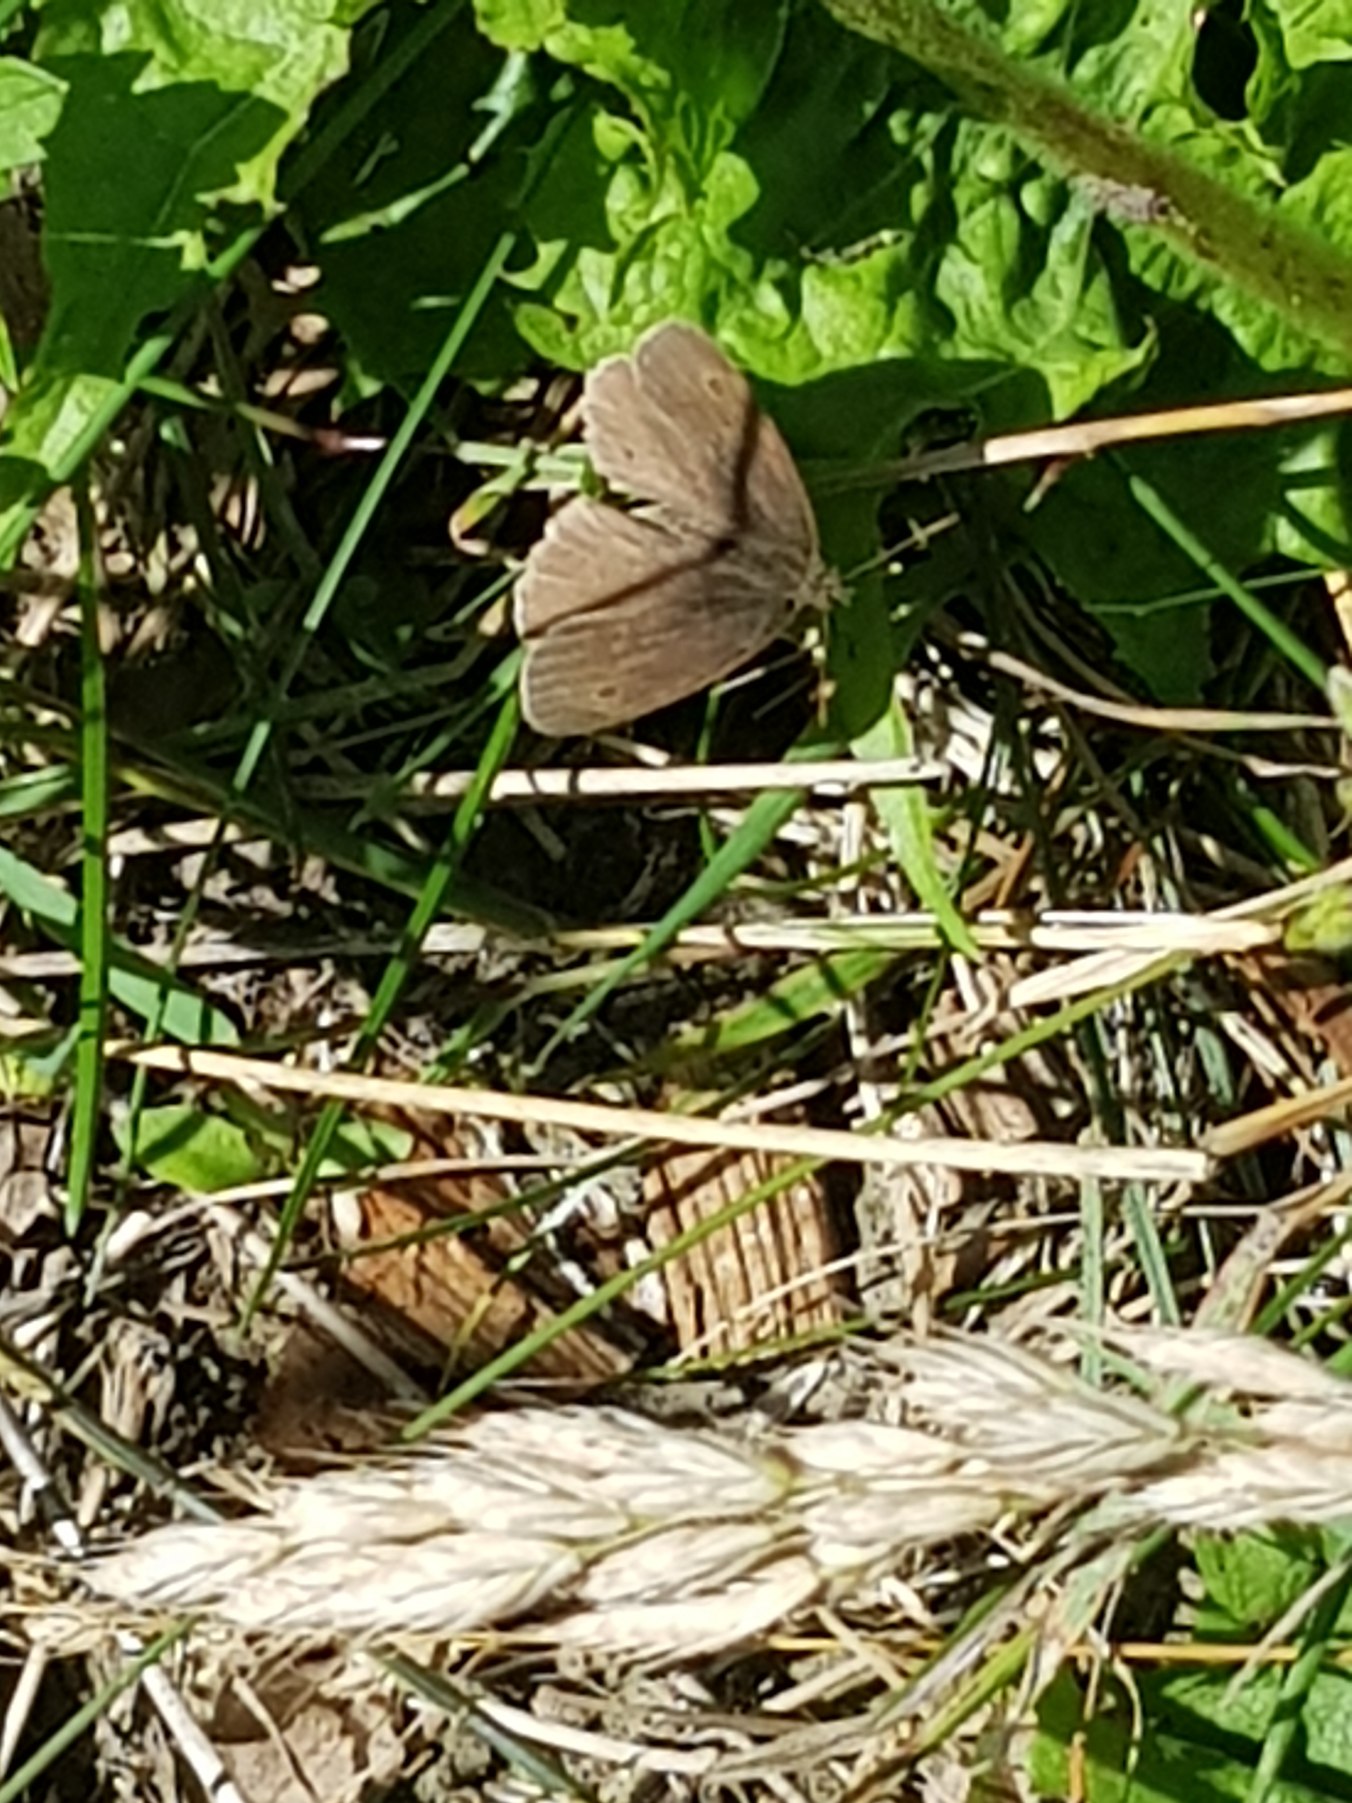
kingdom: Animalia
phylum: Arthropoda
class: Insecta
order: Lepidoptera
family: Nymphalidae
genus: Aphantopus
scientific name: Aphantopus hyperantus
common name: Engrandøje
